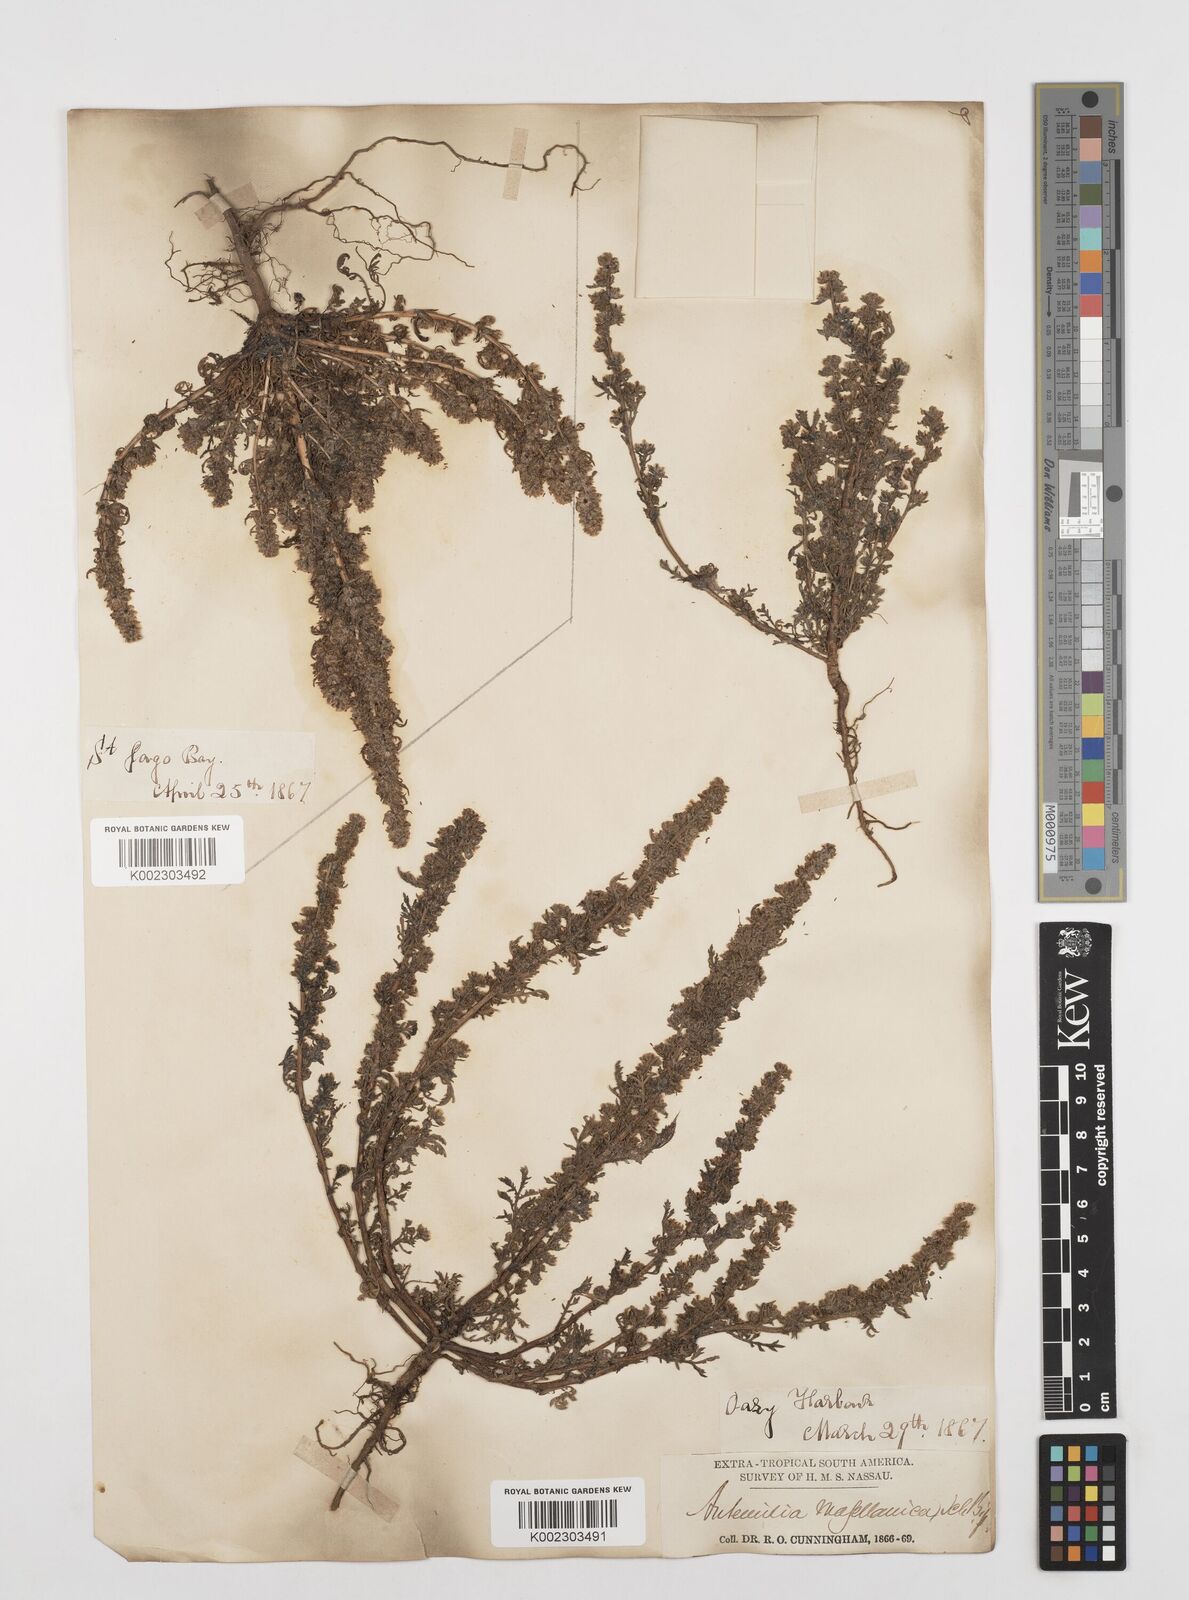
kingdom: Plantae
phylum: Tracheophyta
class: Magnoliopsida
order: Asterales
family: Asteraceae
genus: Artemisia
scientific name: Artemisia
